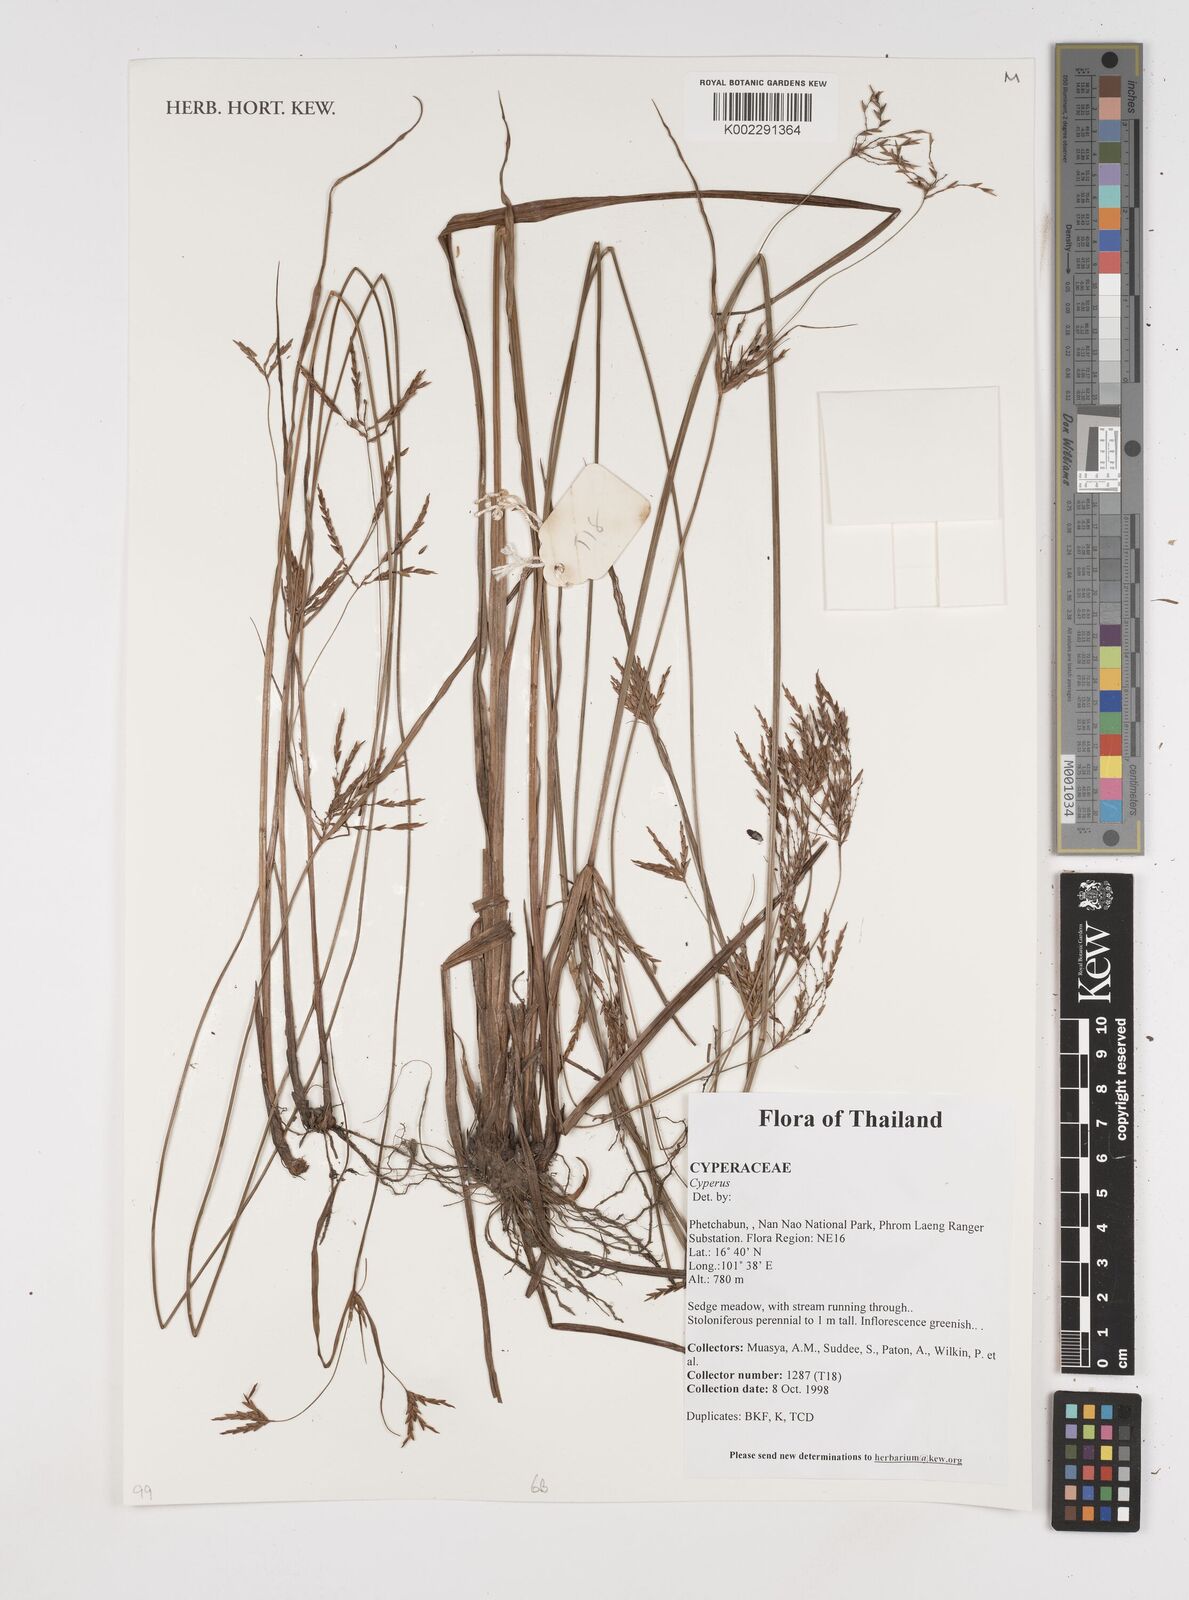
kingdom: Plantae
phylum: Tracheophyta
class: Liliopsida
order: Poales
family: Cyperaceae
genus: Cyperus
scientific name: Cyperus
